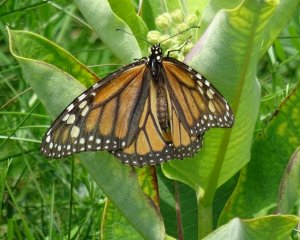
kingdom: Animalia
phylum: Arthropoda
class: Insecta
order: Lepidoptera
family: Nymphalidae
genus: Danaus
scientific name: Danaus plexippus
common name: Monarch
